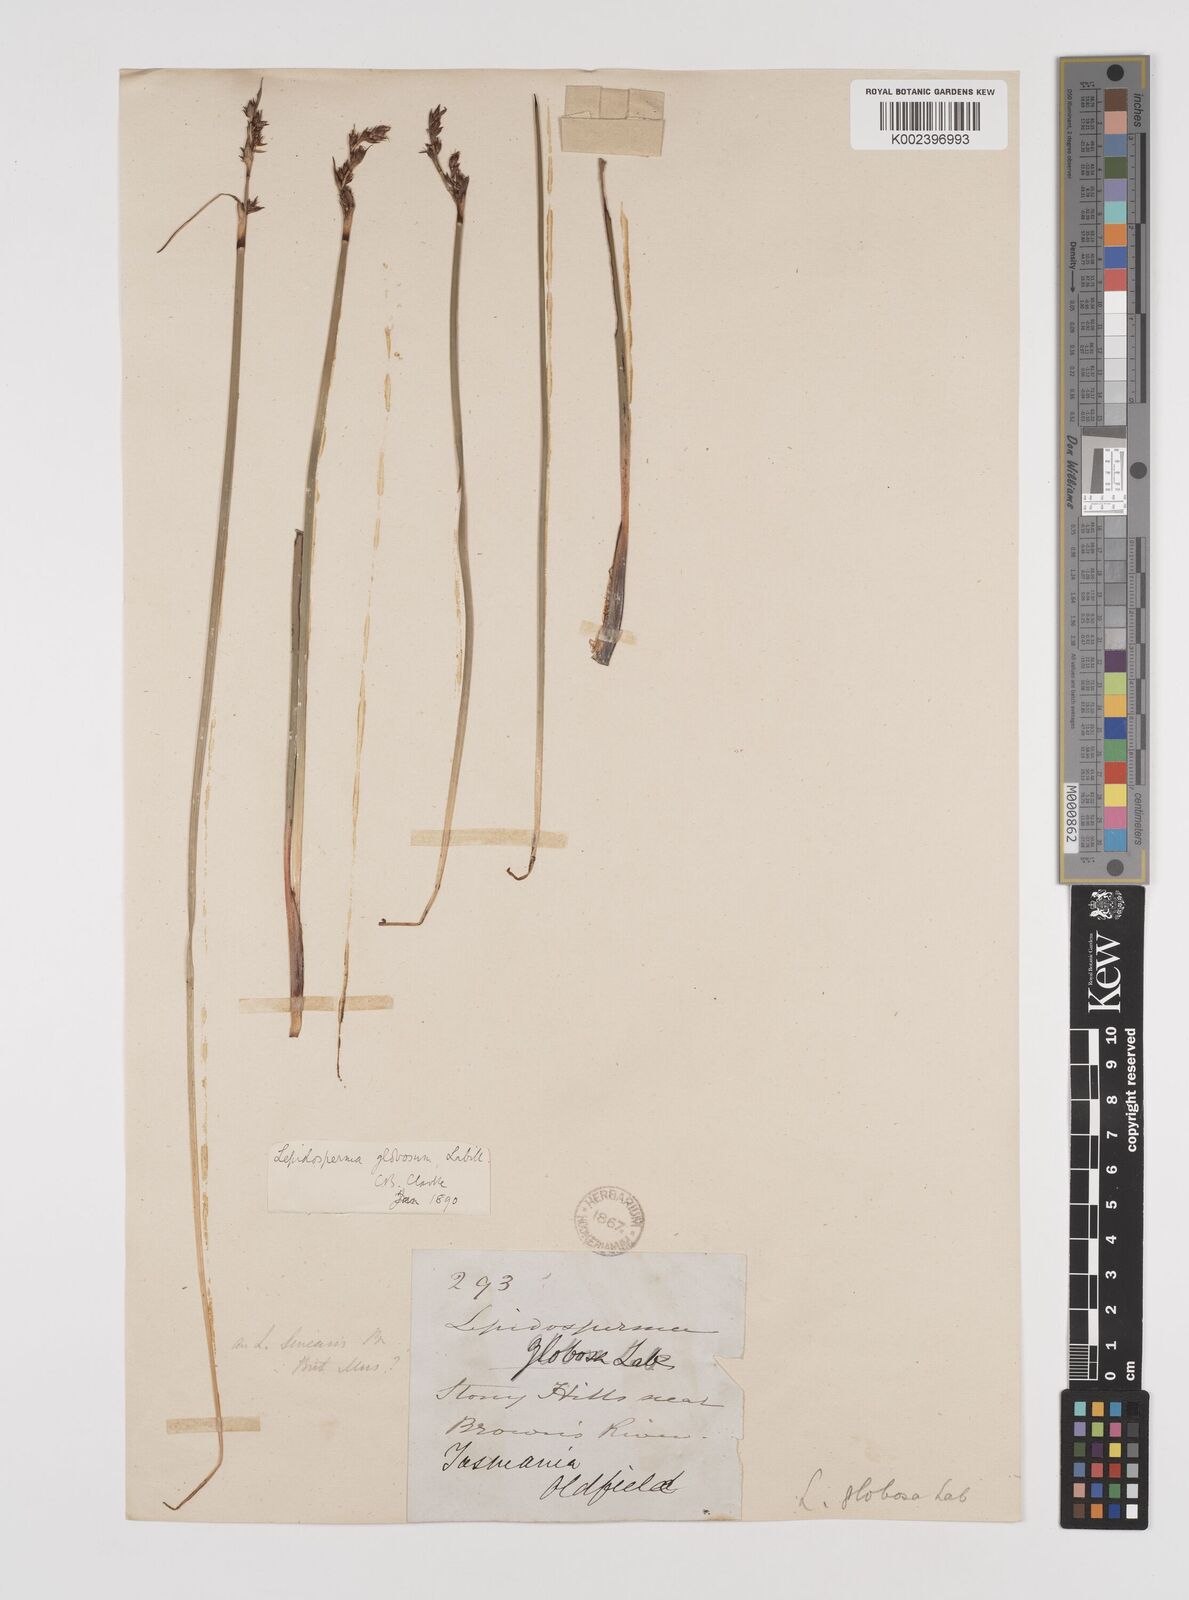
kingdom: Plantae
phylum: Tracheophyta
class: Liliopsida
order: Poales
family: Cyperaceae
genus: Lepidosperma
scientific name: Lepidosperma globosum
